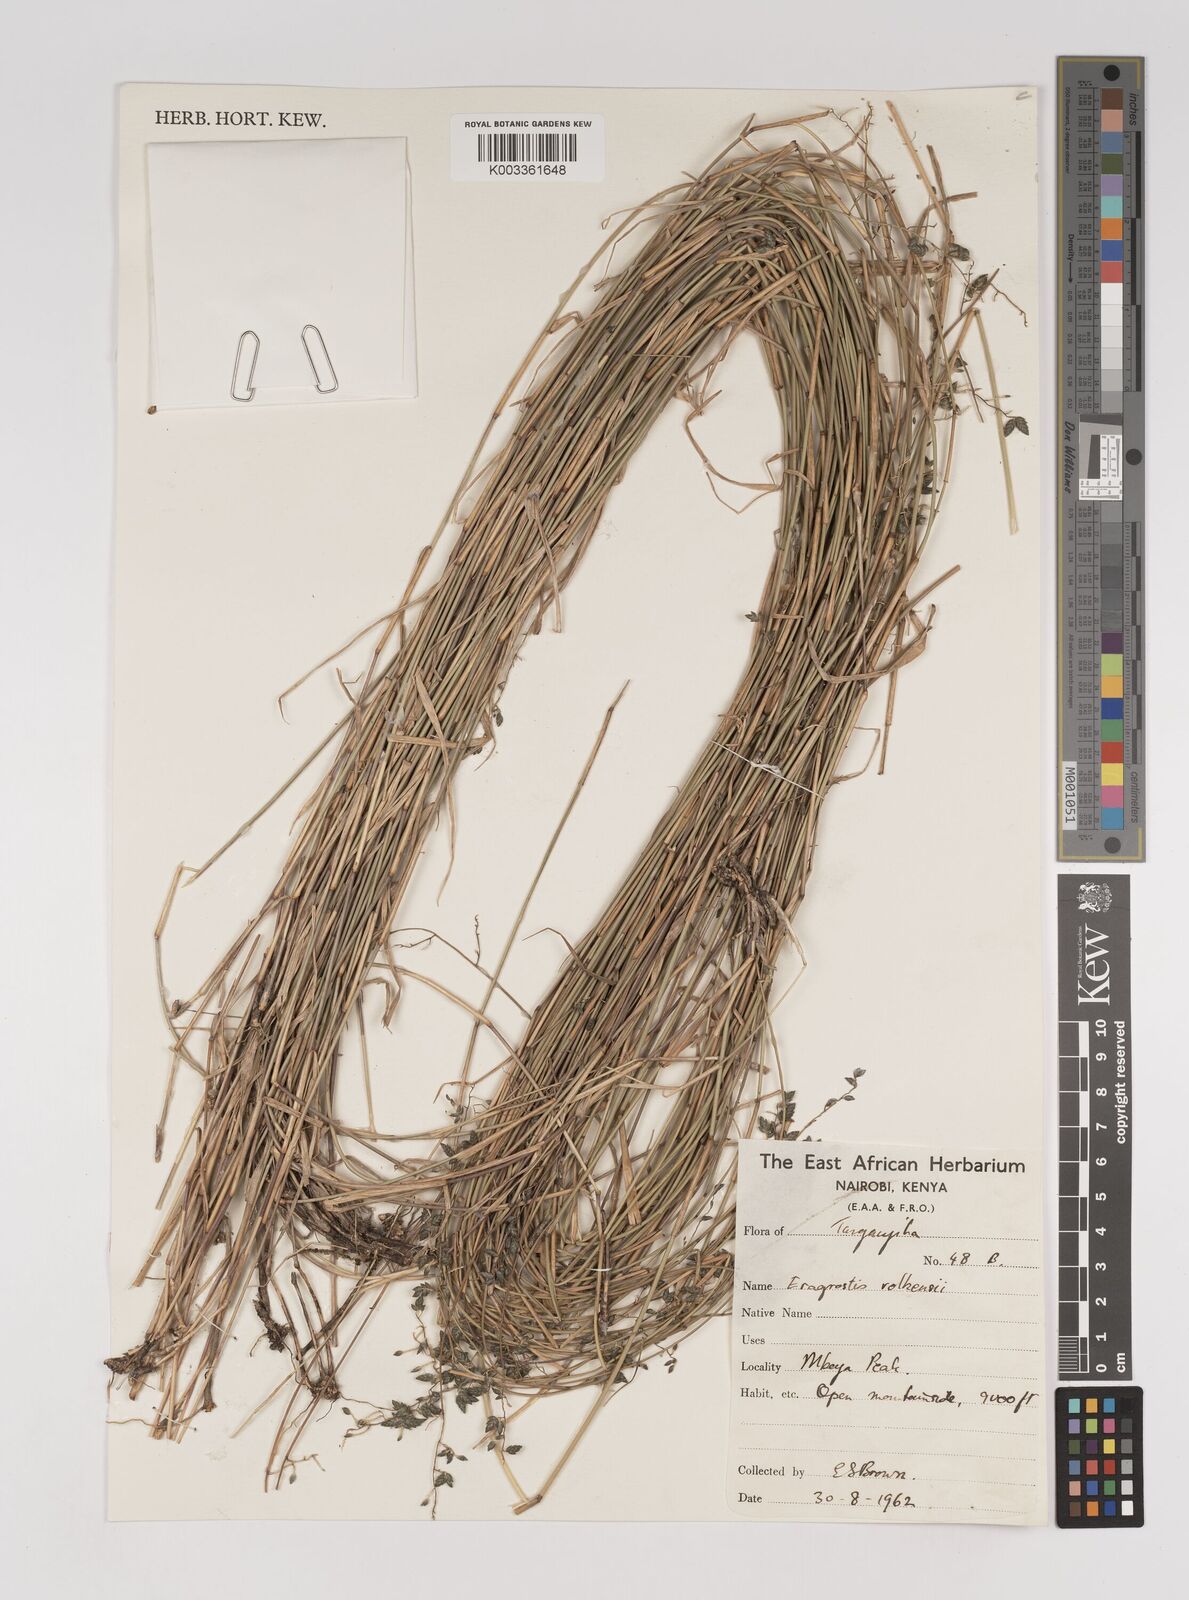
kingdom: Plantae
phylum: Tracheophyta
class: Liliopsida
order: Poales
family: Poaceae
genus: Eragrostis
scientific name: Eragrostis volkensii
